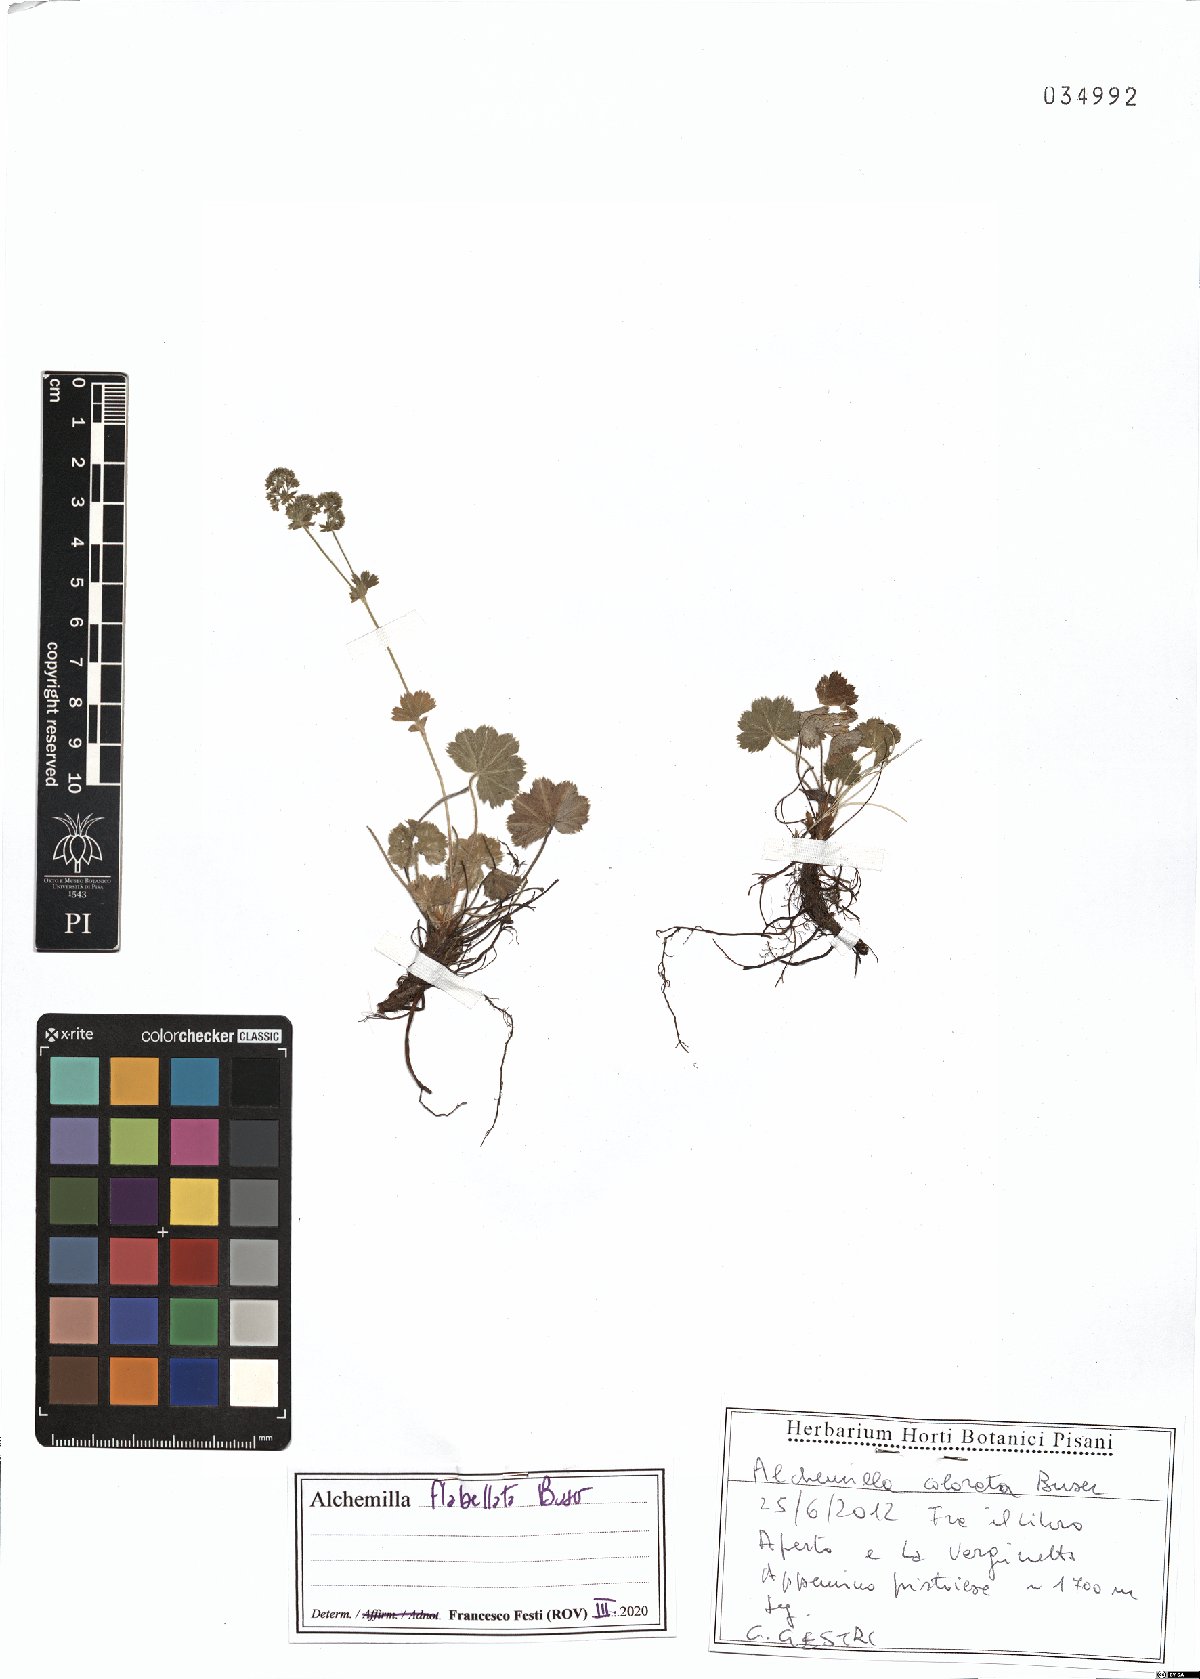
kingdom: Plantae
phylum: Tracheophyta
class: Magnoliopsida
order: Rosales
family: Rosaceae
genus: Alchemilla
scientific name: Alchemilla flabellata
